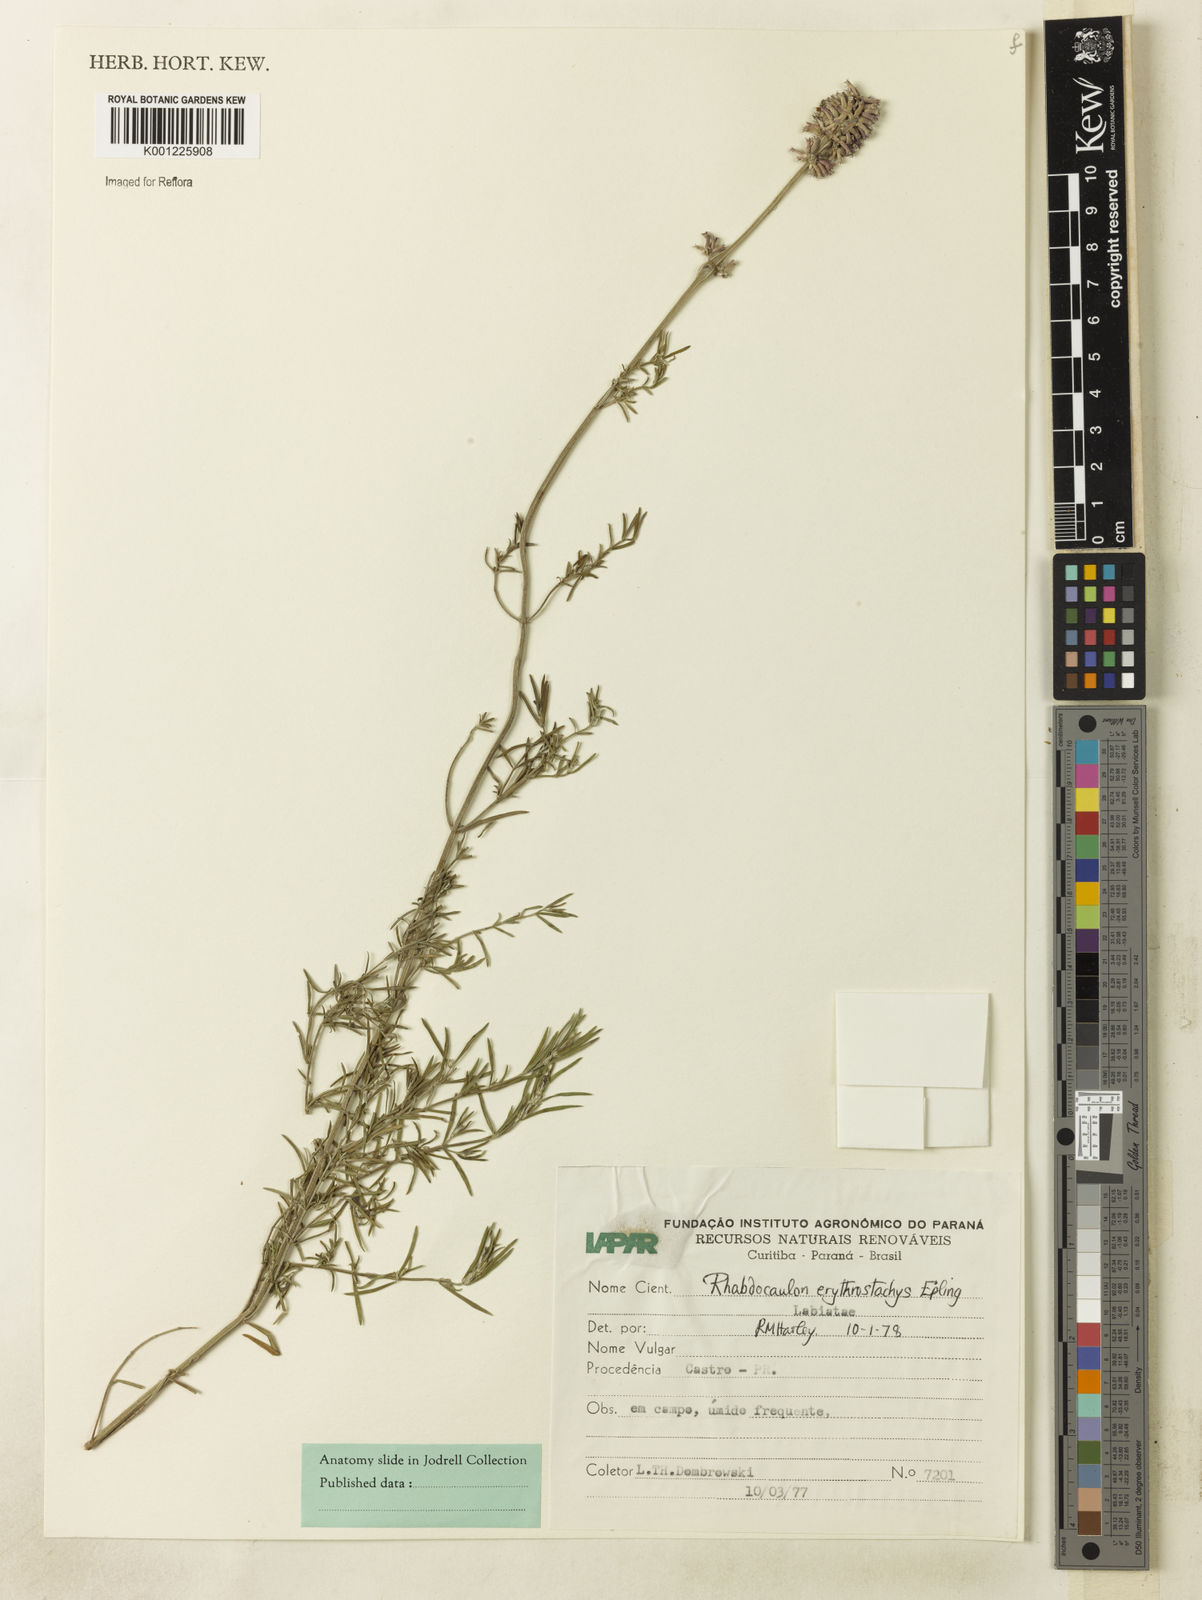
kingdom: Plantae
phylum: Tracheophyta
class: Magnoliopsida
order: Lamiales
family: Lamiaceae
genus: Rhabdocaulon
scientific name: Rhabdocaulon lavanduloides
